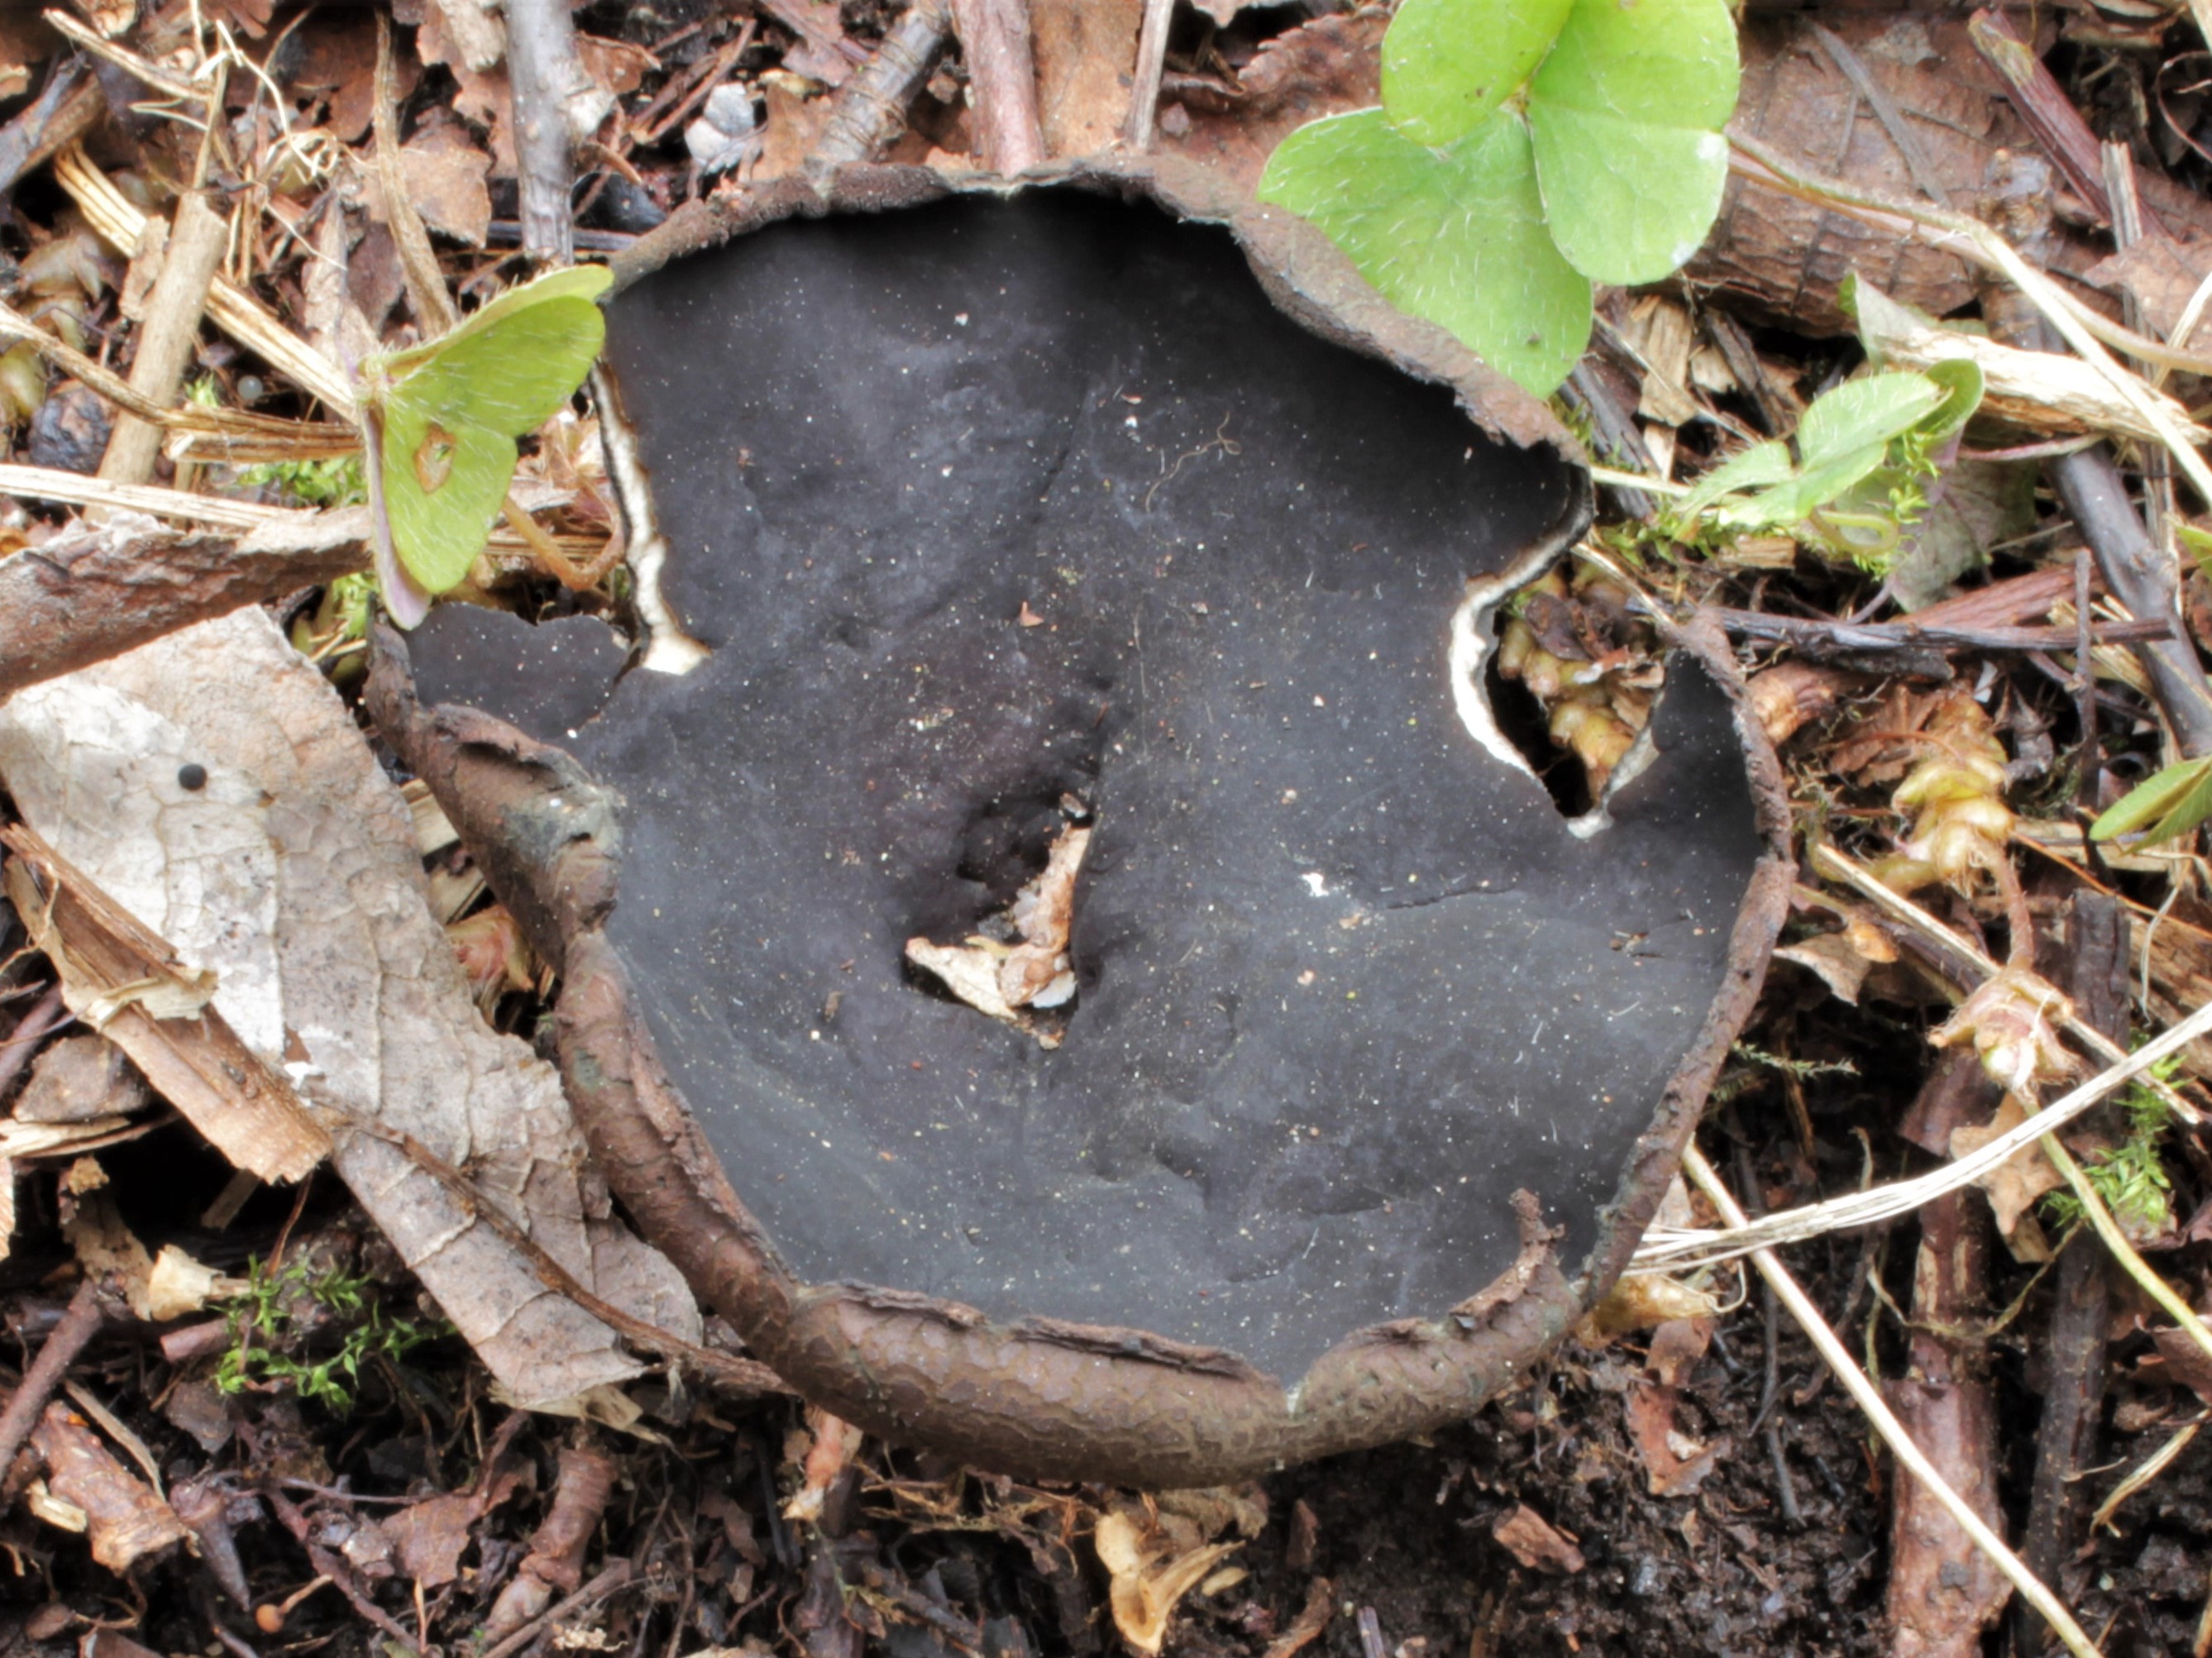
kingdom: Fungi
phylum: Ascomycota
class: Pezizomycetes
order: Pezizales
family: Sarcosomataceae
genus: Urnula
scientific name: Urnula hiemalis
